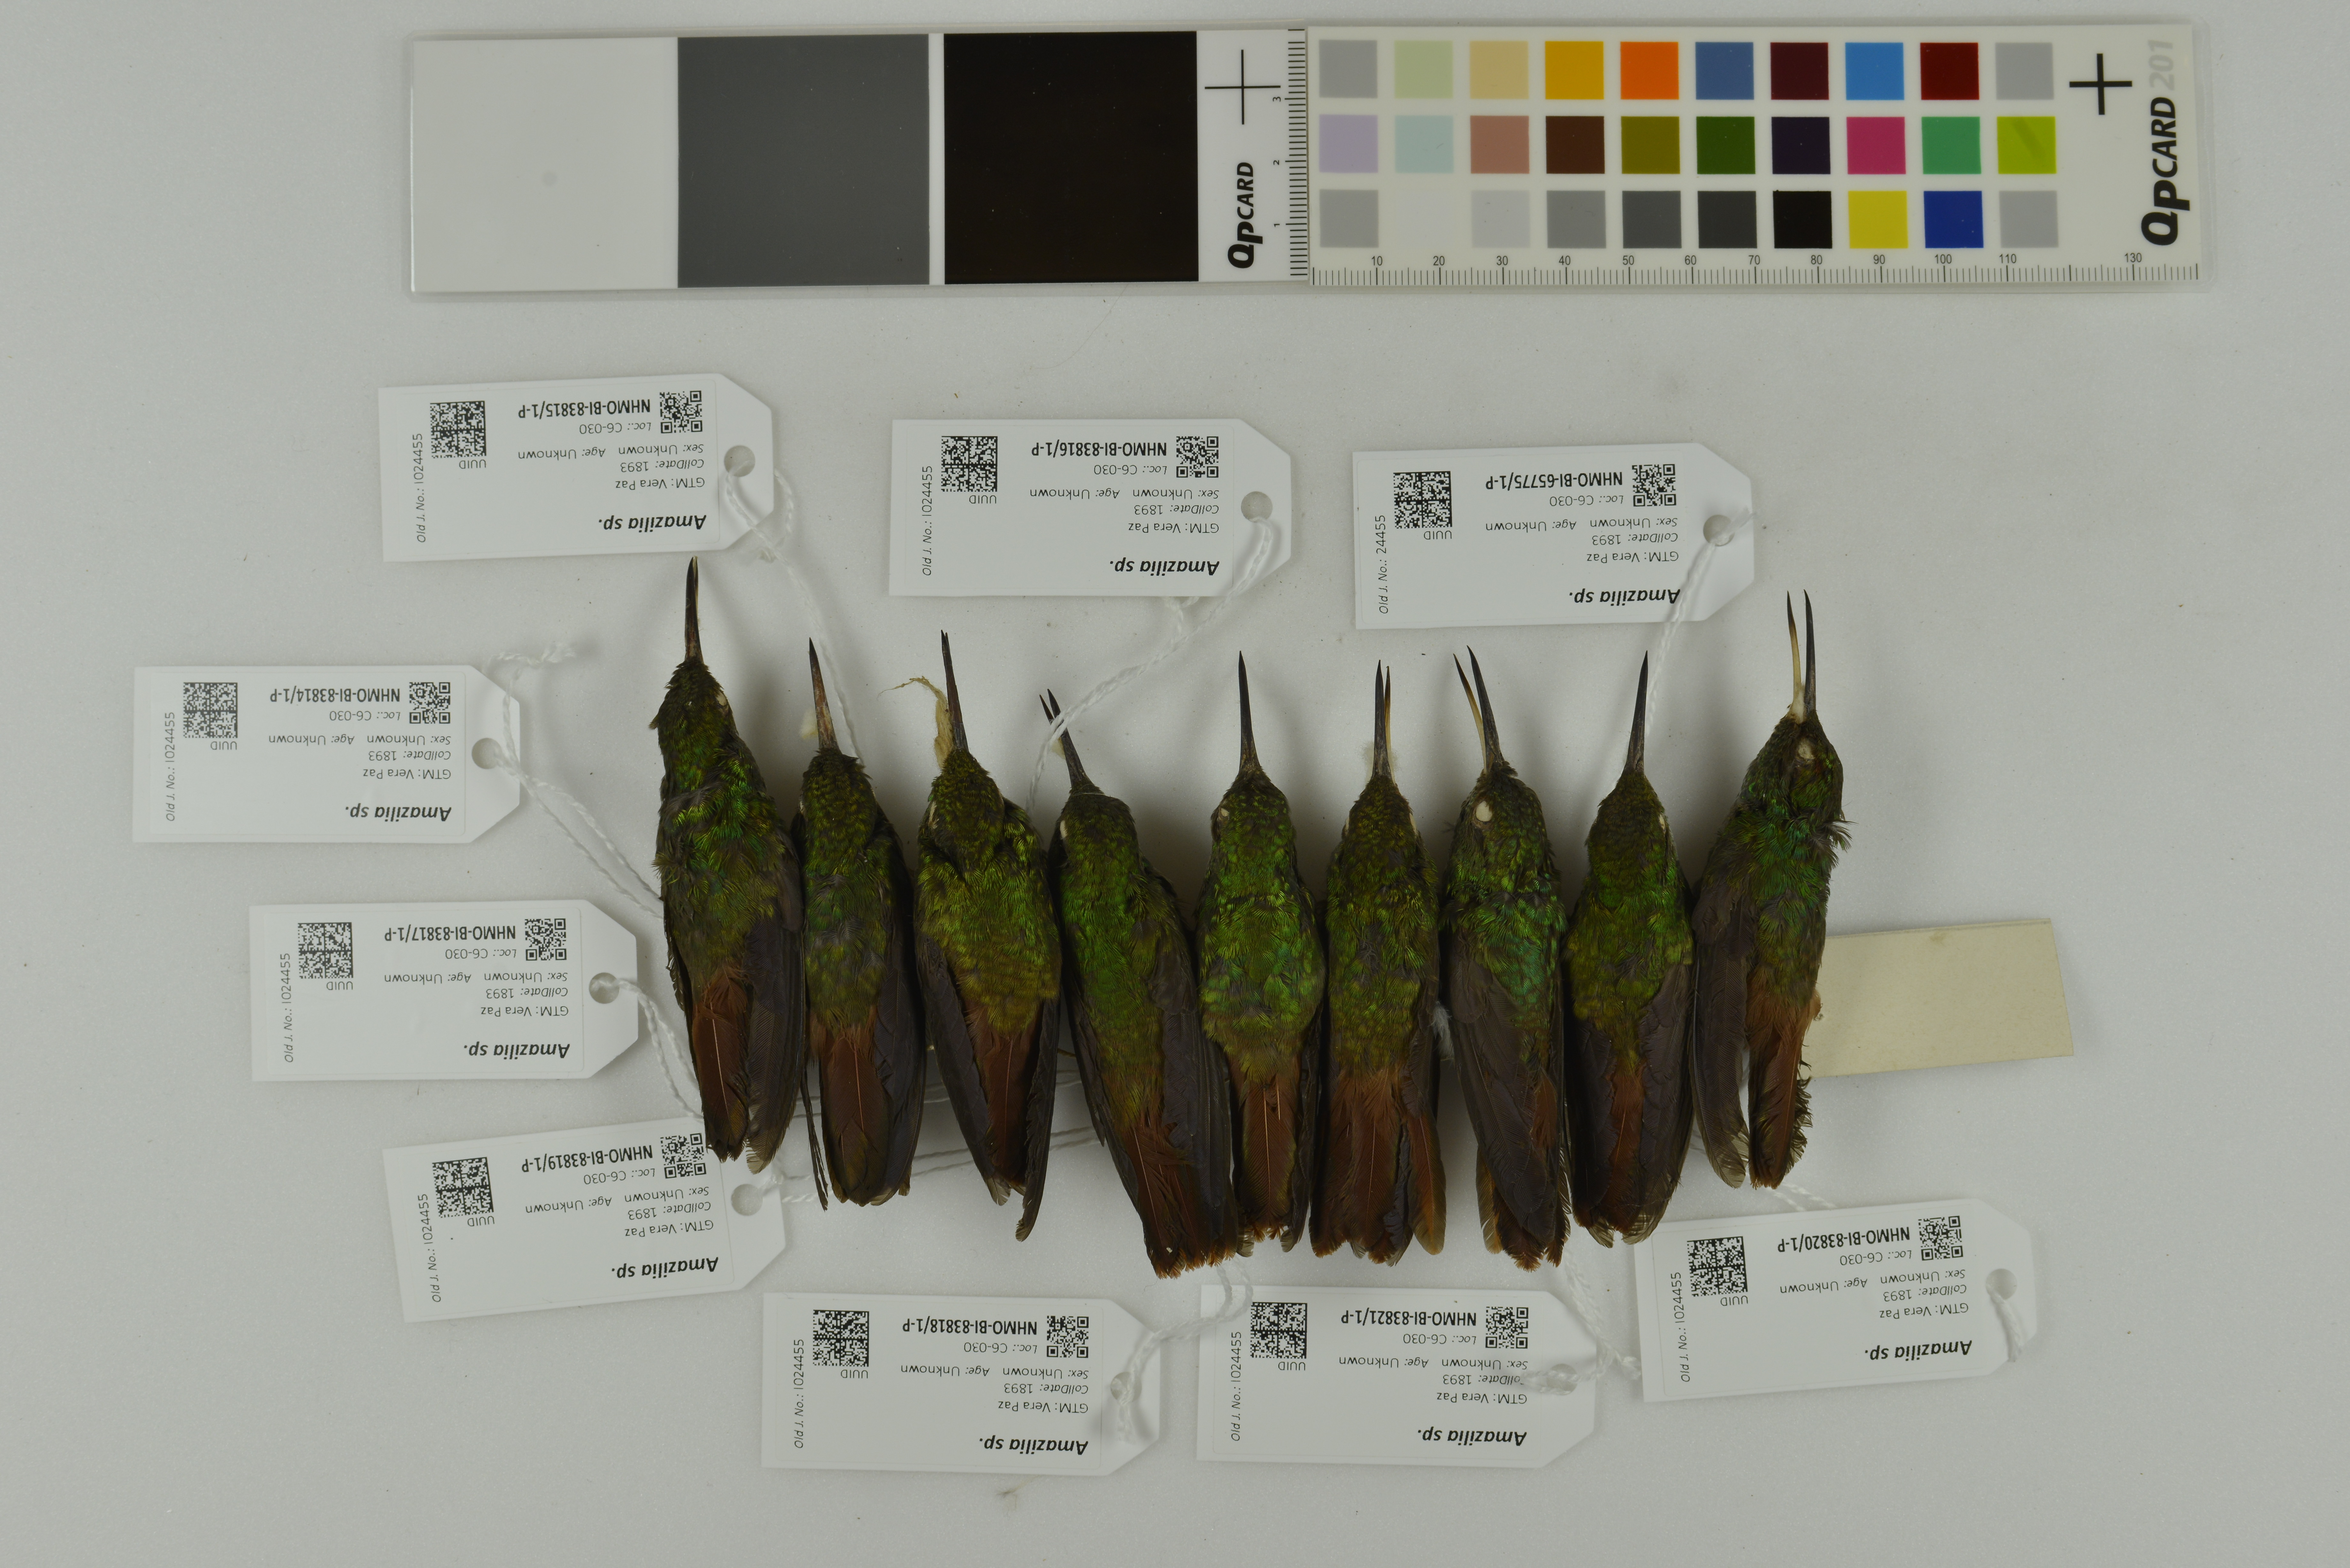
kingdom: Animalia
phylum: Chordata
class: Aves
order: Apodiformes
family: Trochilidae
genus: Amazilia
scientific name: Amazilia
